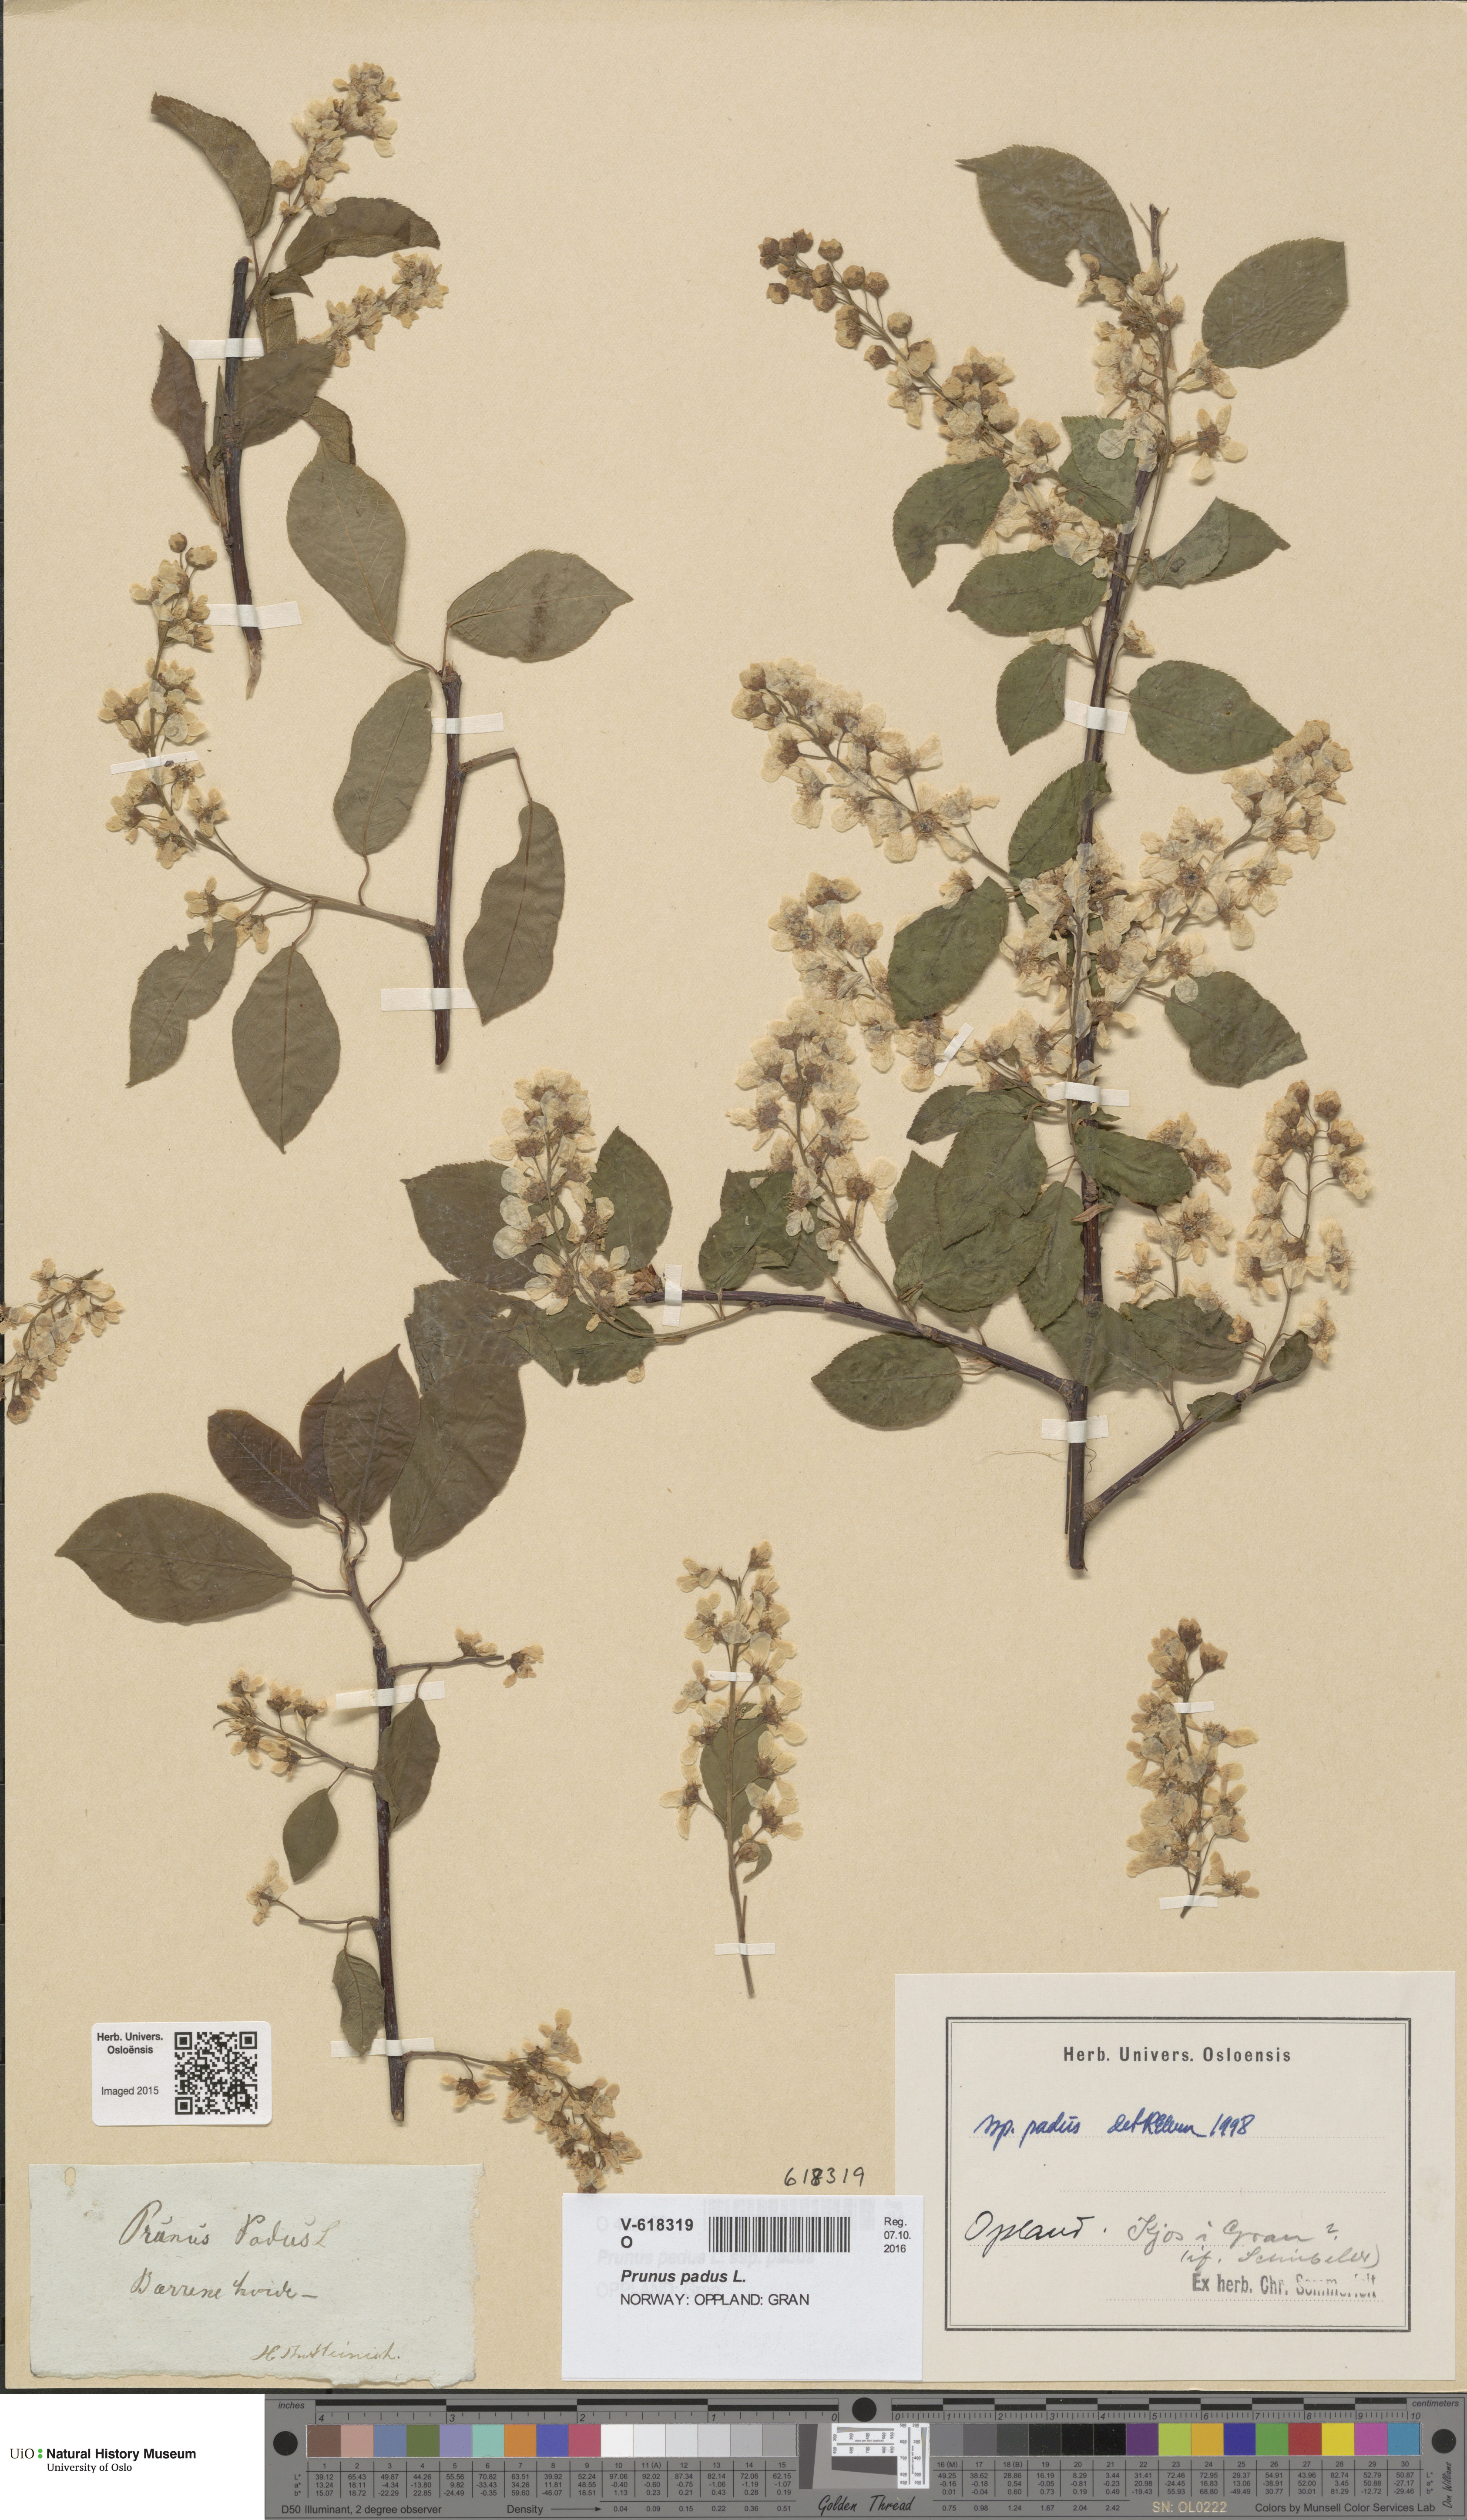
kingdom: Plantae
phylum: Tracheophyta
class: Magnoliopsida
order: Rosales
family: Rosaceae
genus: Prunus
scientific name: Prunus padus
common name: Bird cherry
